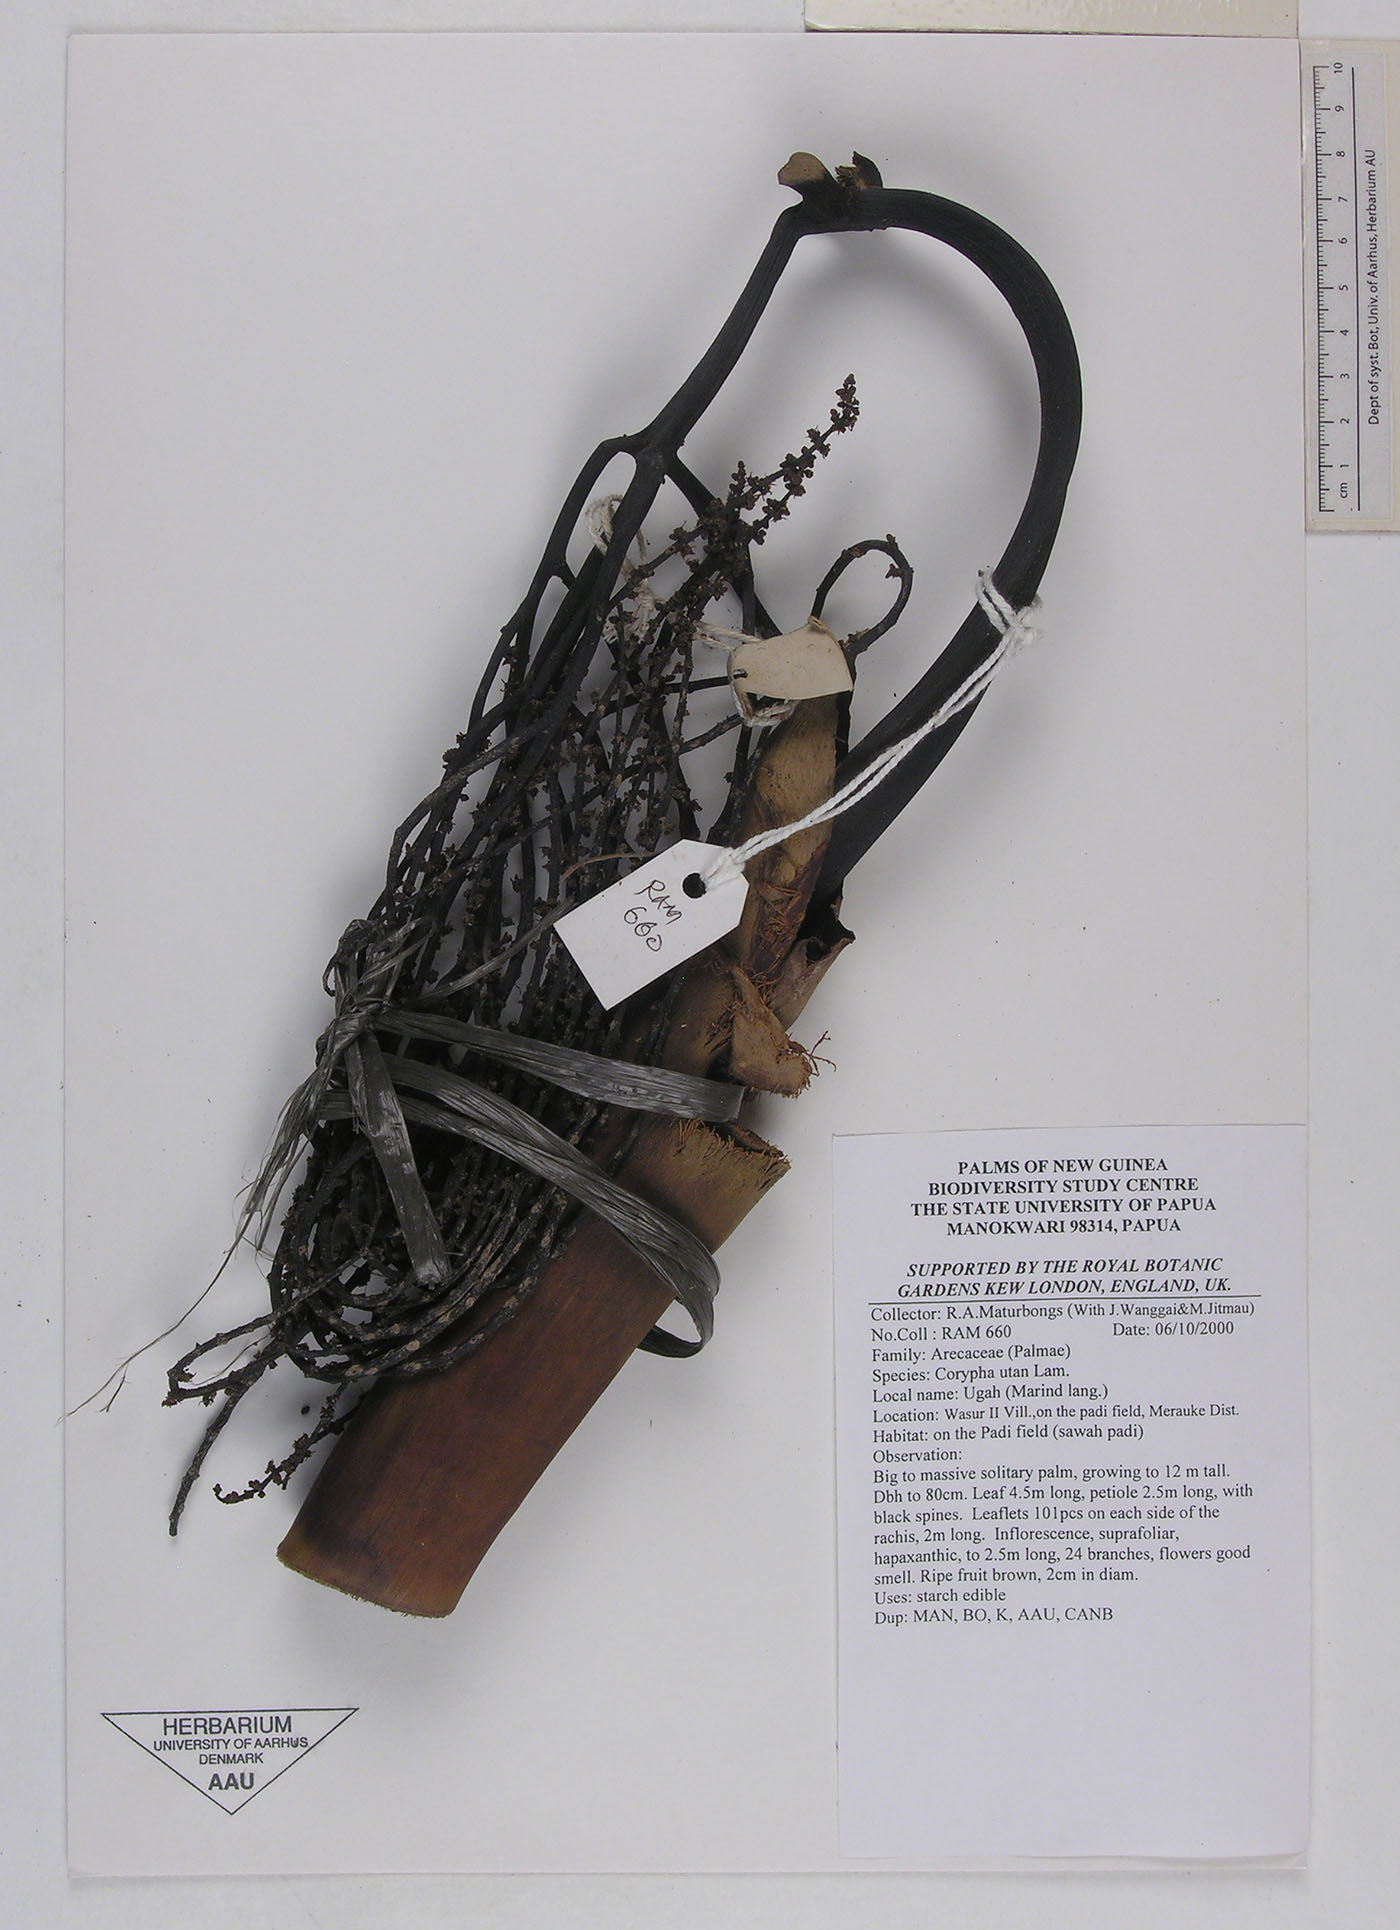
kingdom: Plantae
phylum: Tracheophyta
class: Liliopsida
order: Arecales
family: Arecaceae
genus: Corypha
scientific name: Corypha utan
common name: Buri palm
